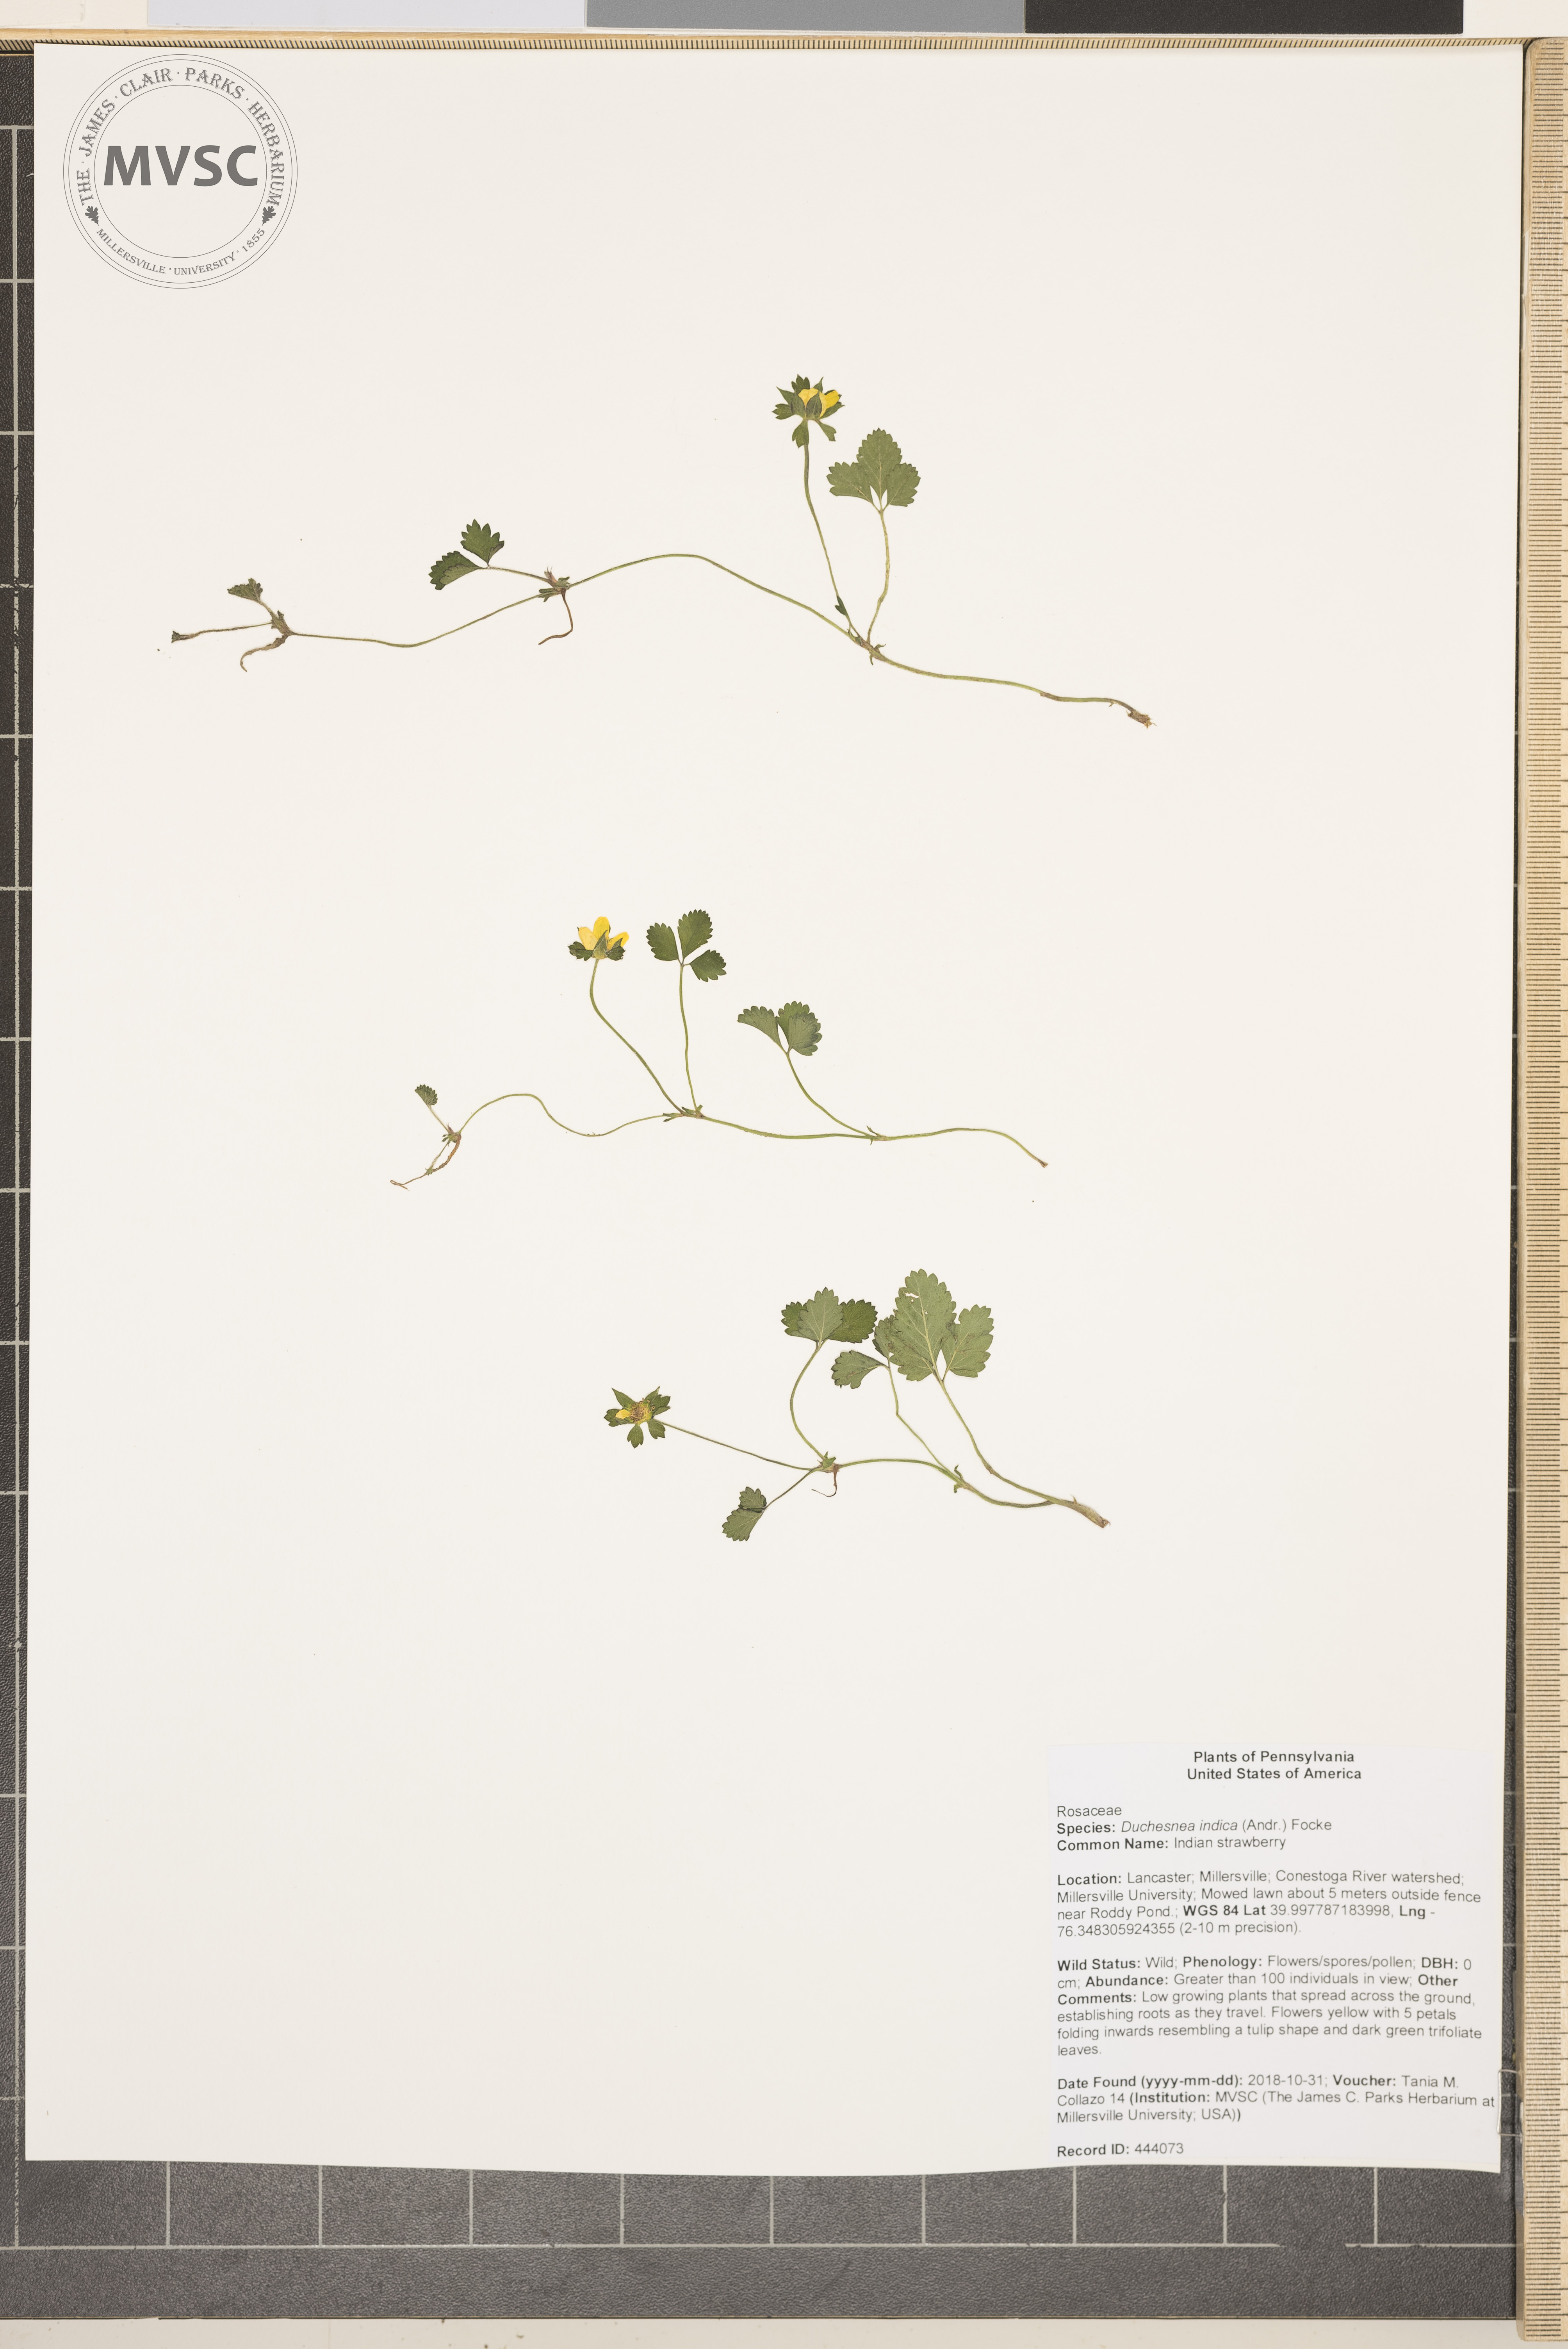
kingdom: Plantae
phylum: Tracheophyta
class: Magnoliopsida
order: Rosales
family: Rosaceae
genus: Potentilla
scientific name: Potentilla indica
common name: Indian strawberry
